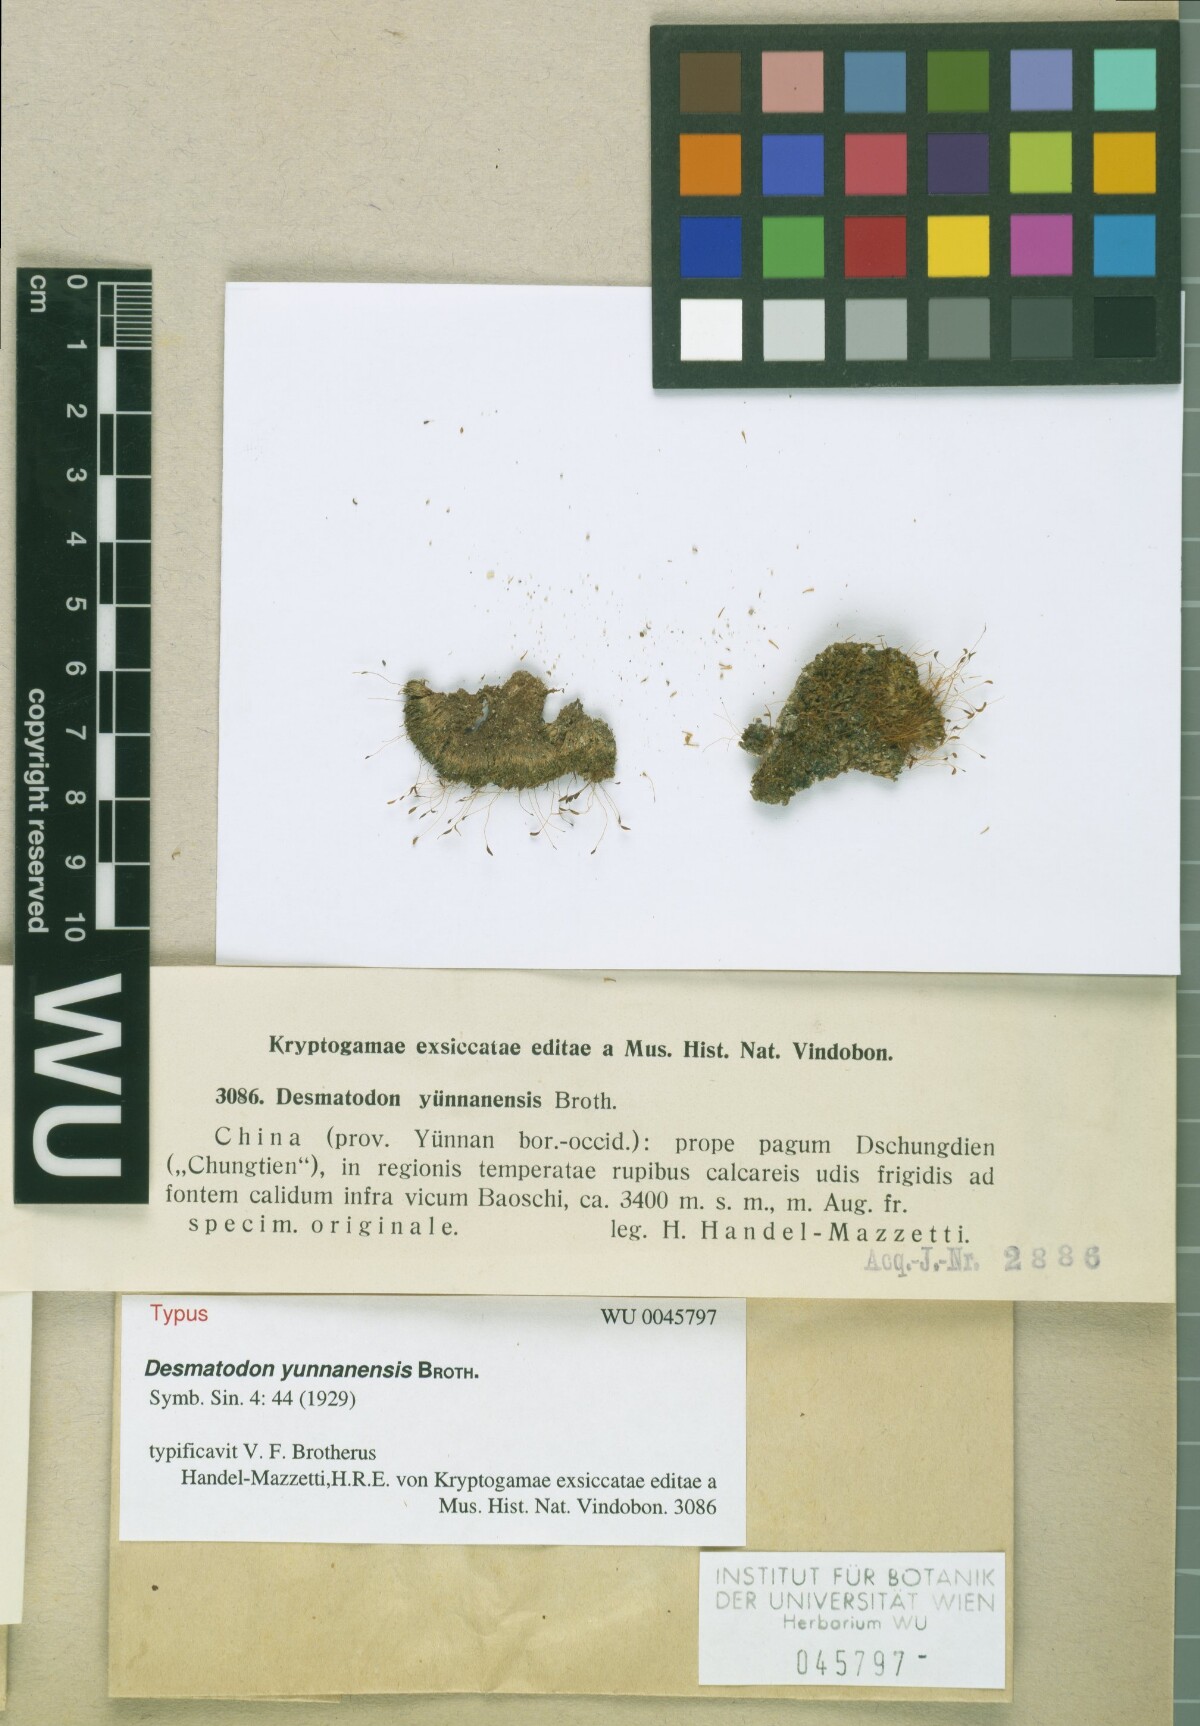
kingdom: Animalia
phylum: Chordata
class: Amphibia
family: Diadectidae
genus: Desmatodon
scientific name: Desmatodon
